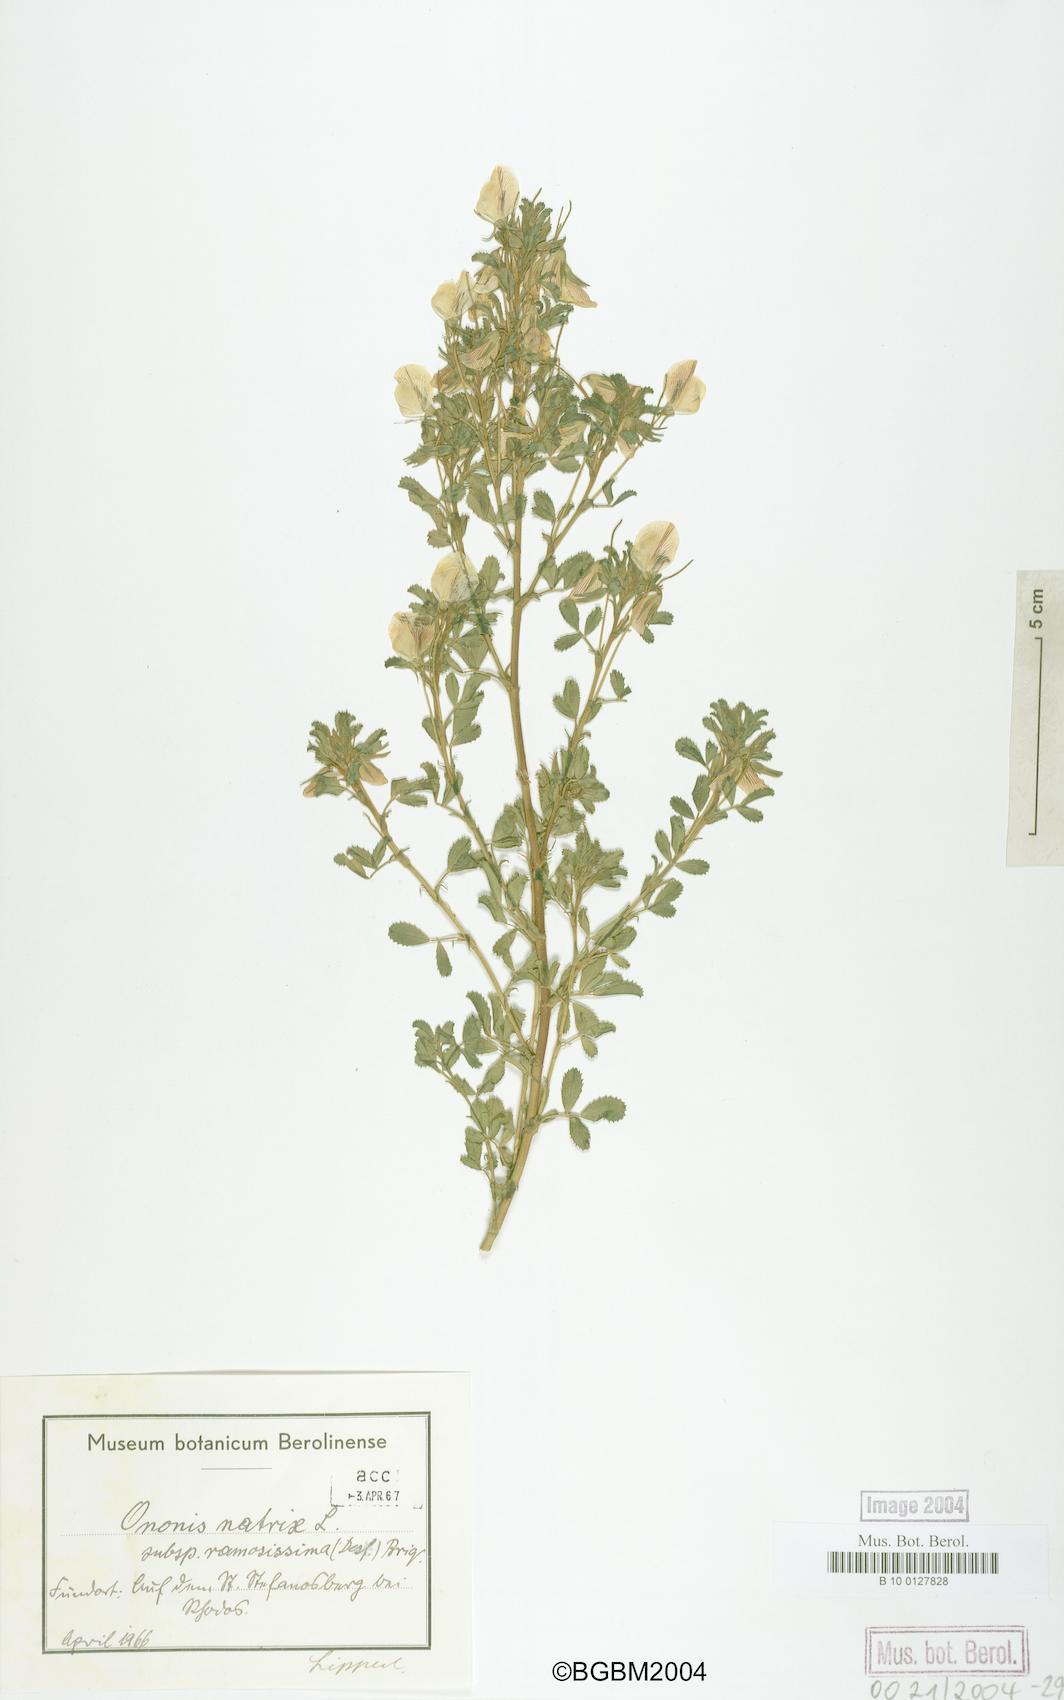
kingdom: Plantae
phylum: Tracheophyta
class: Magnoliopsida
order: Fabales
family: Fabaceae
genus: Ononis
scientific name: Ononis natrix
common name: Yellow restharrow
